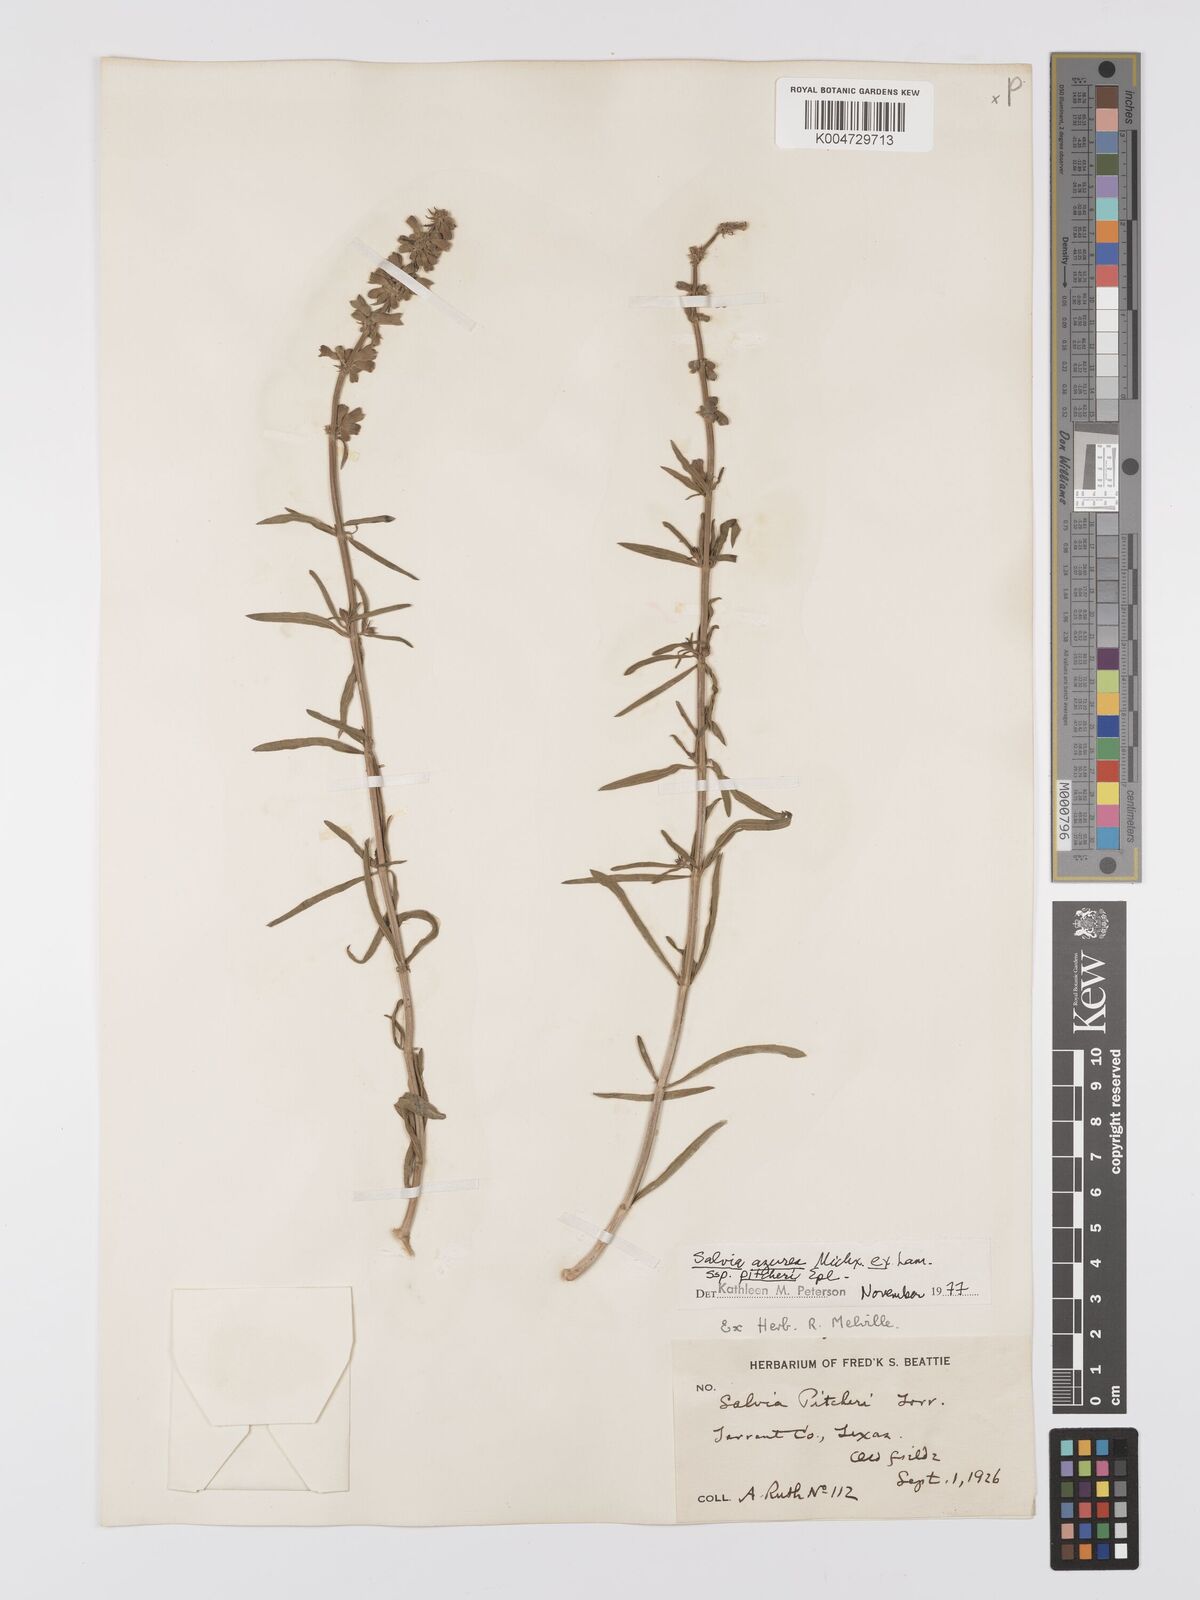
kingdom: Plantae
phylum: Tracheophyta
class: Magnoliopsida
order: Lamiales
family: Lamiaceae
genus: Salvia
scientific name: Salvia azurea
